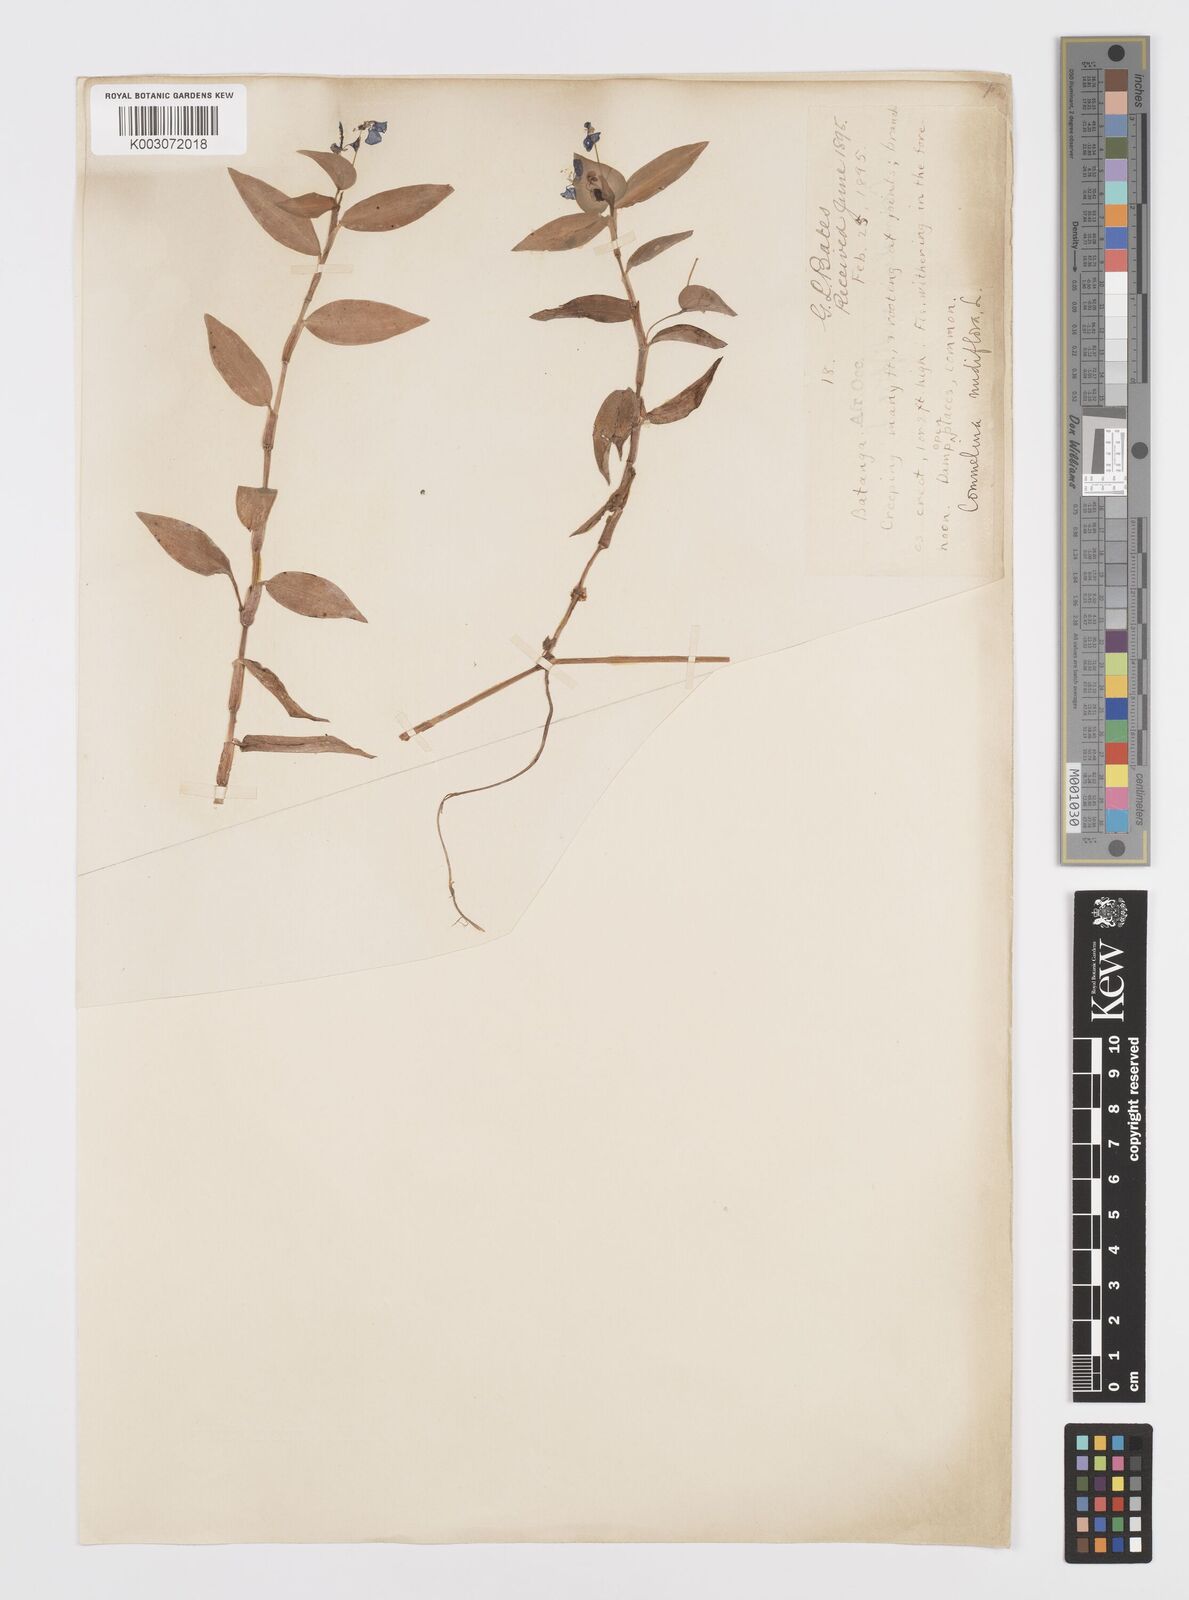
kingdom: Plantae
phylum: Tracheophyta
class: Liliopsida
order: Commelinales
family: Commelinaceae
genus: Commelina
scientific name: Commelina diffusa
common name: Climbing dayflower
